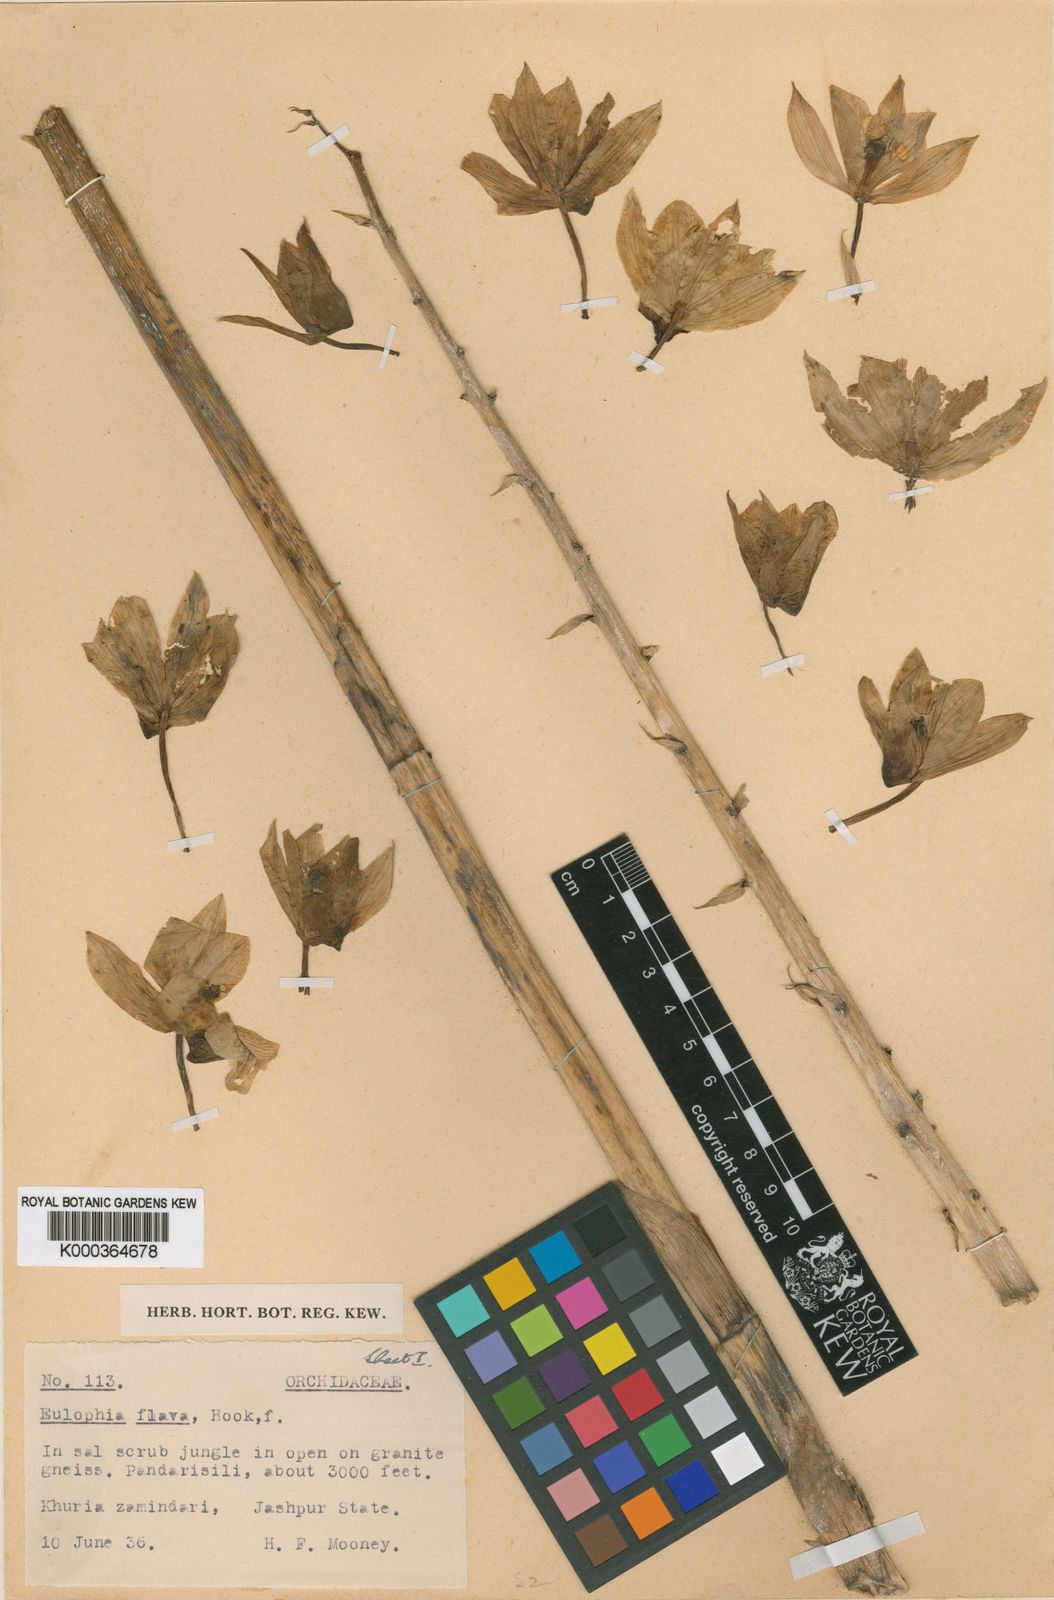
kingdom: Plantae
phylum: Tracheophyta
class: Liliopsida
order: Asparagales
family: Orchidaceae
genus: Eulophia
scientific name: Eulophia flava
